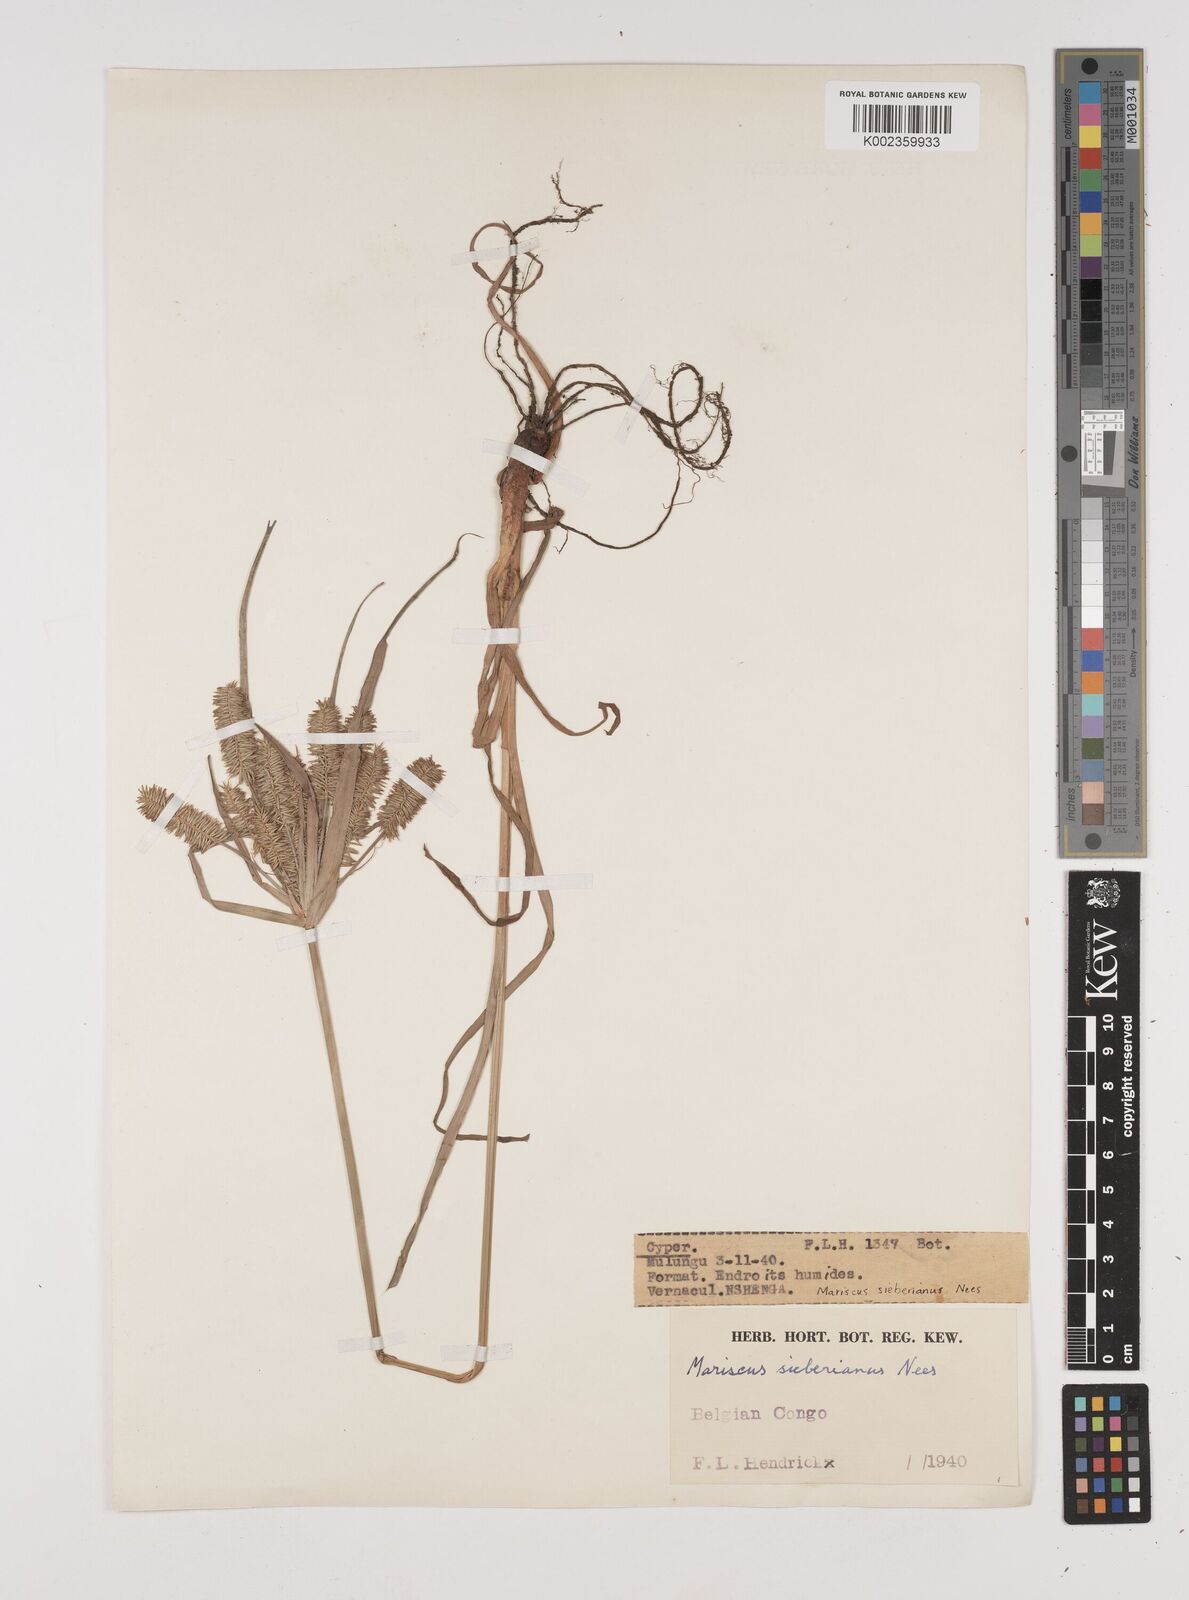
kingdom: Plantae
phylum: Tracheophyta
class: Liliopsida
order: Poales
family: Cyperaceae
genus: Cyperus
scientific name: Cyperus cyperoides
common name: Pacific island flat sedge
